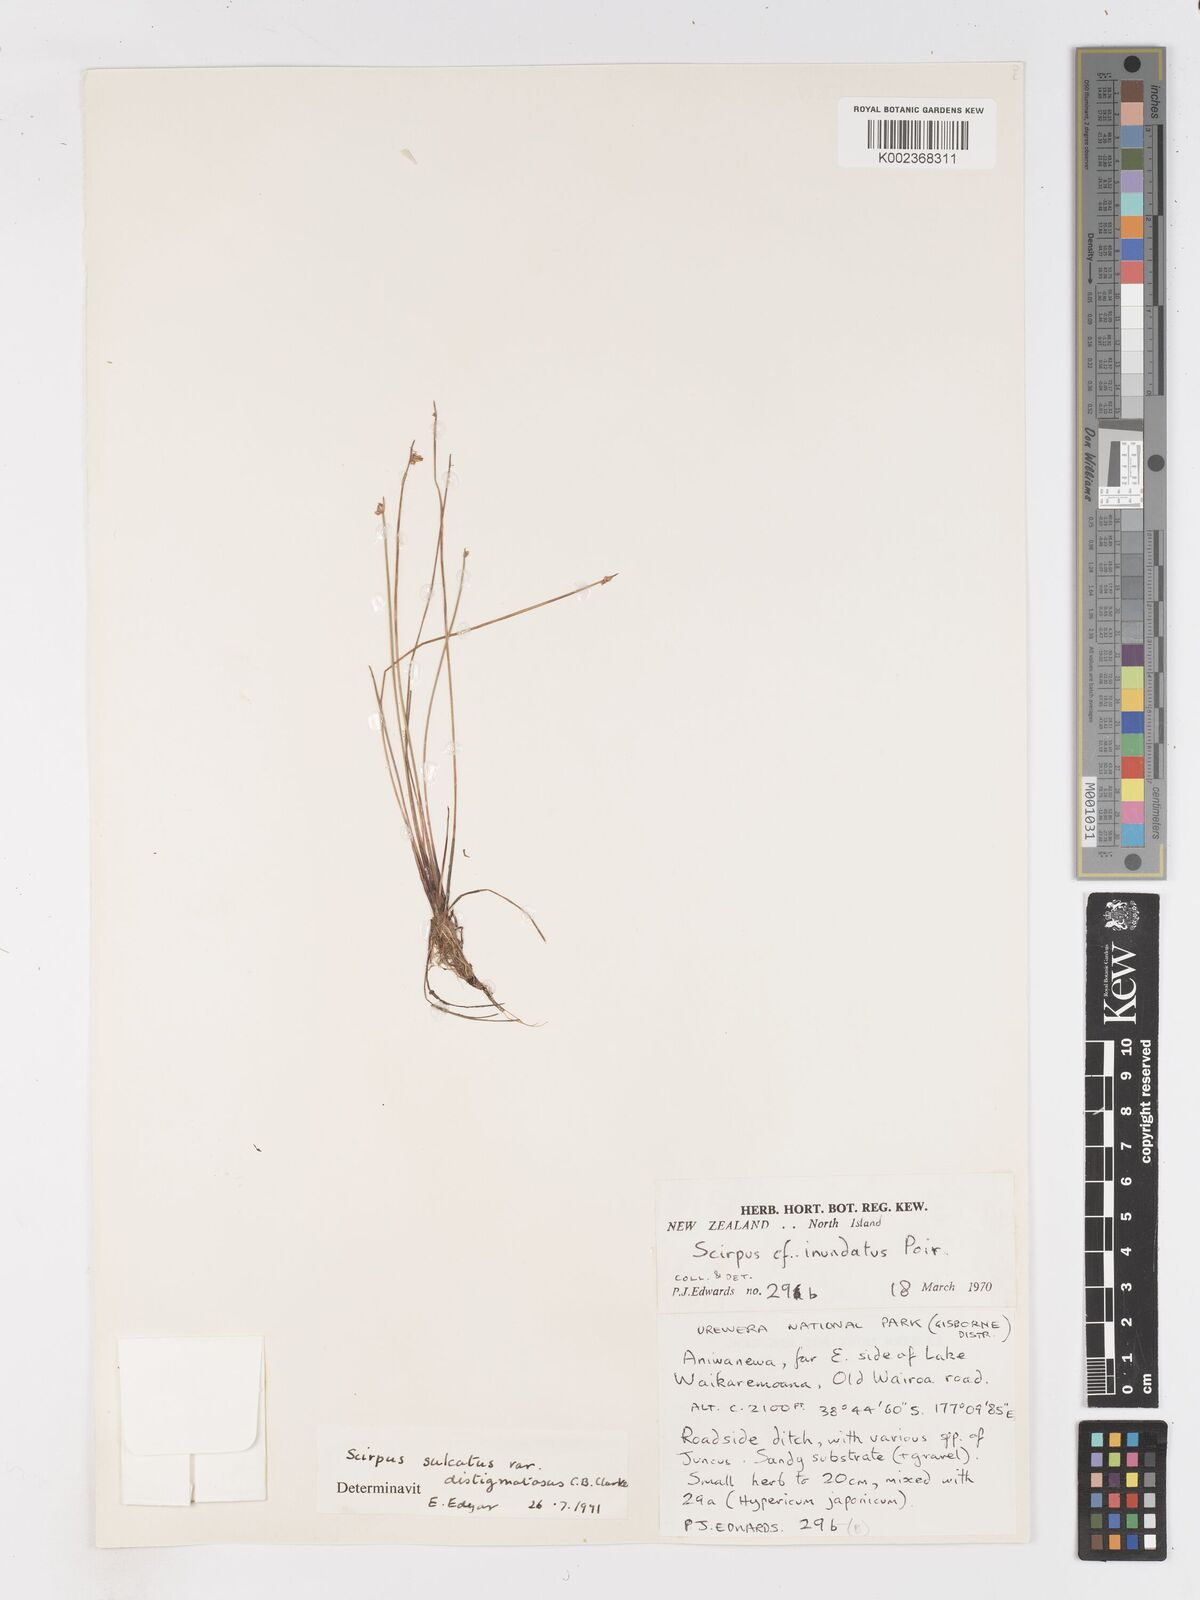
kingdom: Plantae
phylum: Tracheophyta
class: Liliopsida
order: Poales
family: Cyperaceae
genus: Isolepis
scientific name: Isolepis sulcata
